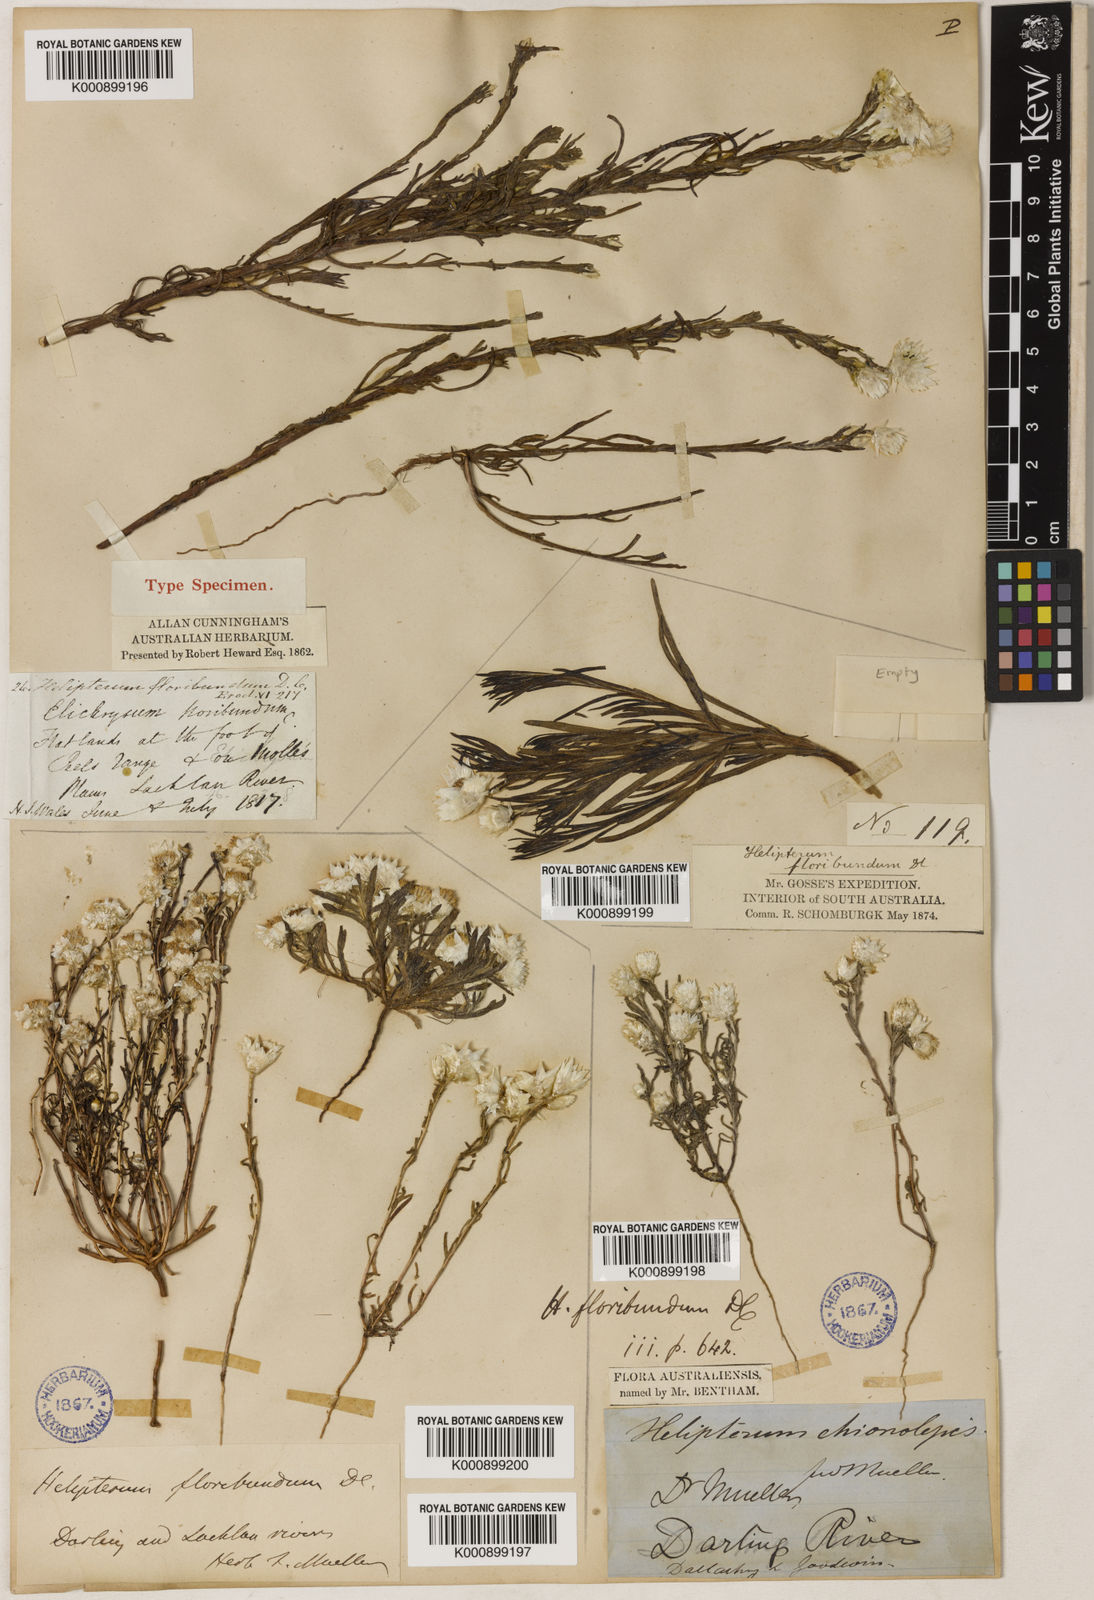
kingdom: Plantae
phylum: Tracheophyta
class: Magnoliopsida
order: Asterales
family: Asteraceae
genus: Rhodanthe
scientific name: Rhodanthe floribunda
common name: Flowery sunray
